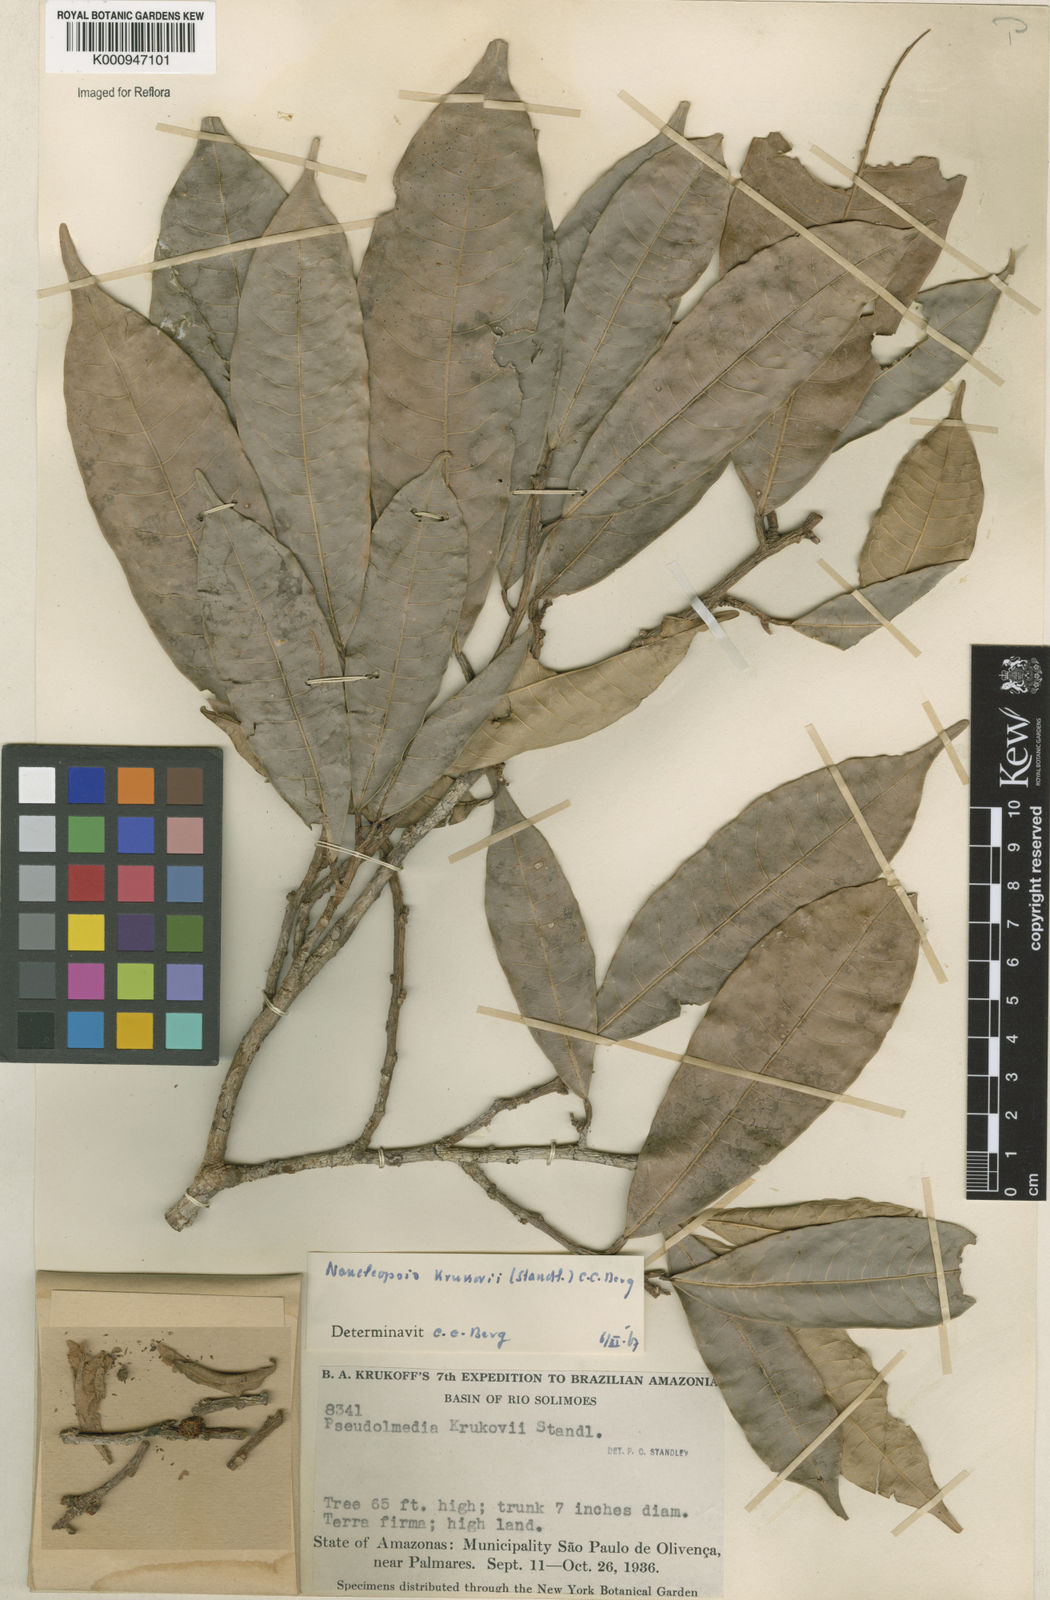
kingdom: Plantae
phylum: Tracheophyta
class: Magnoliopsida
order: Rosales
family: Moraceae
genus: Naucleopsis
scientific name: Naucleopsis krukovii
